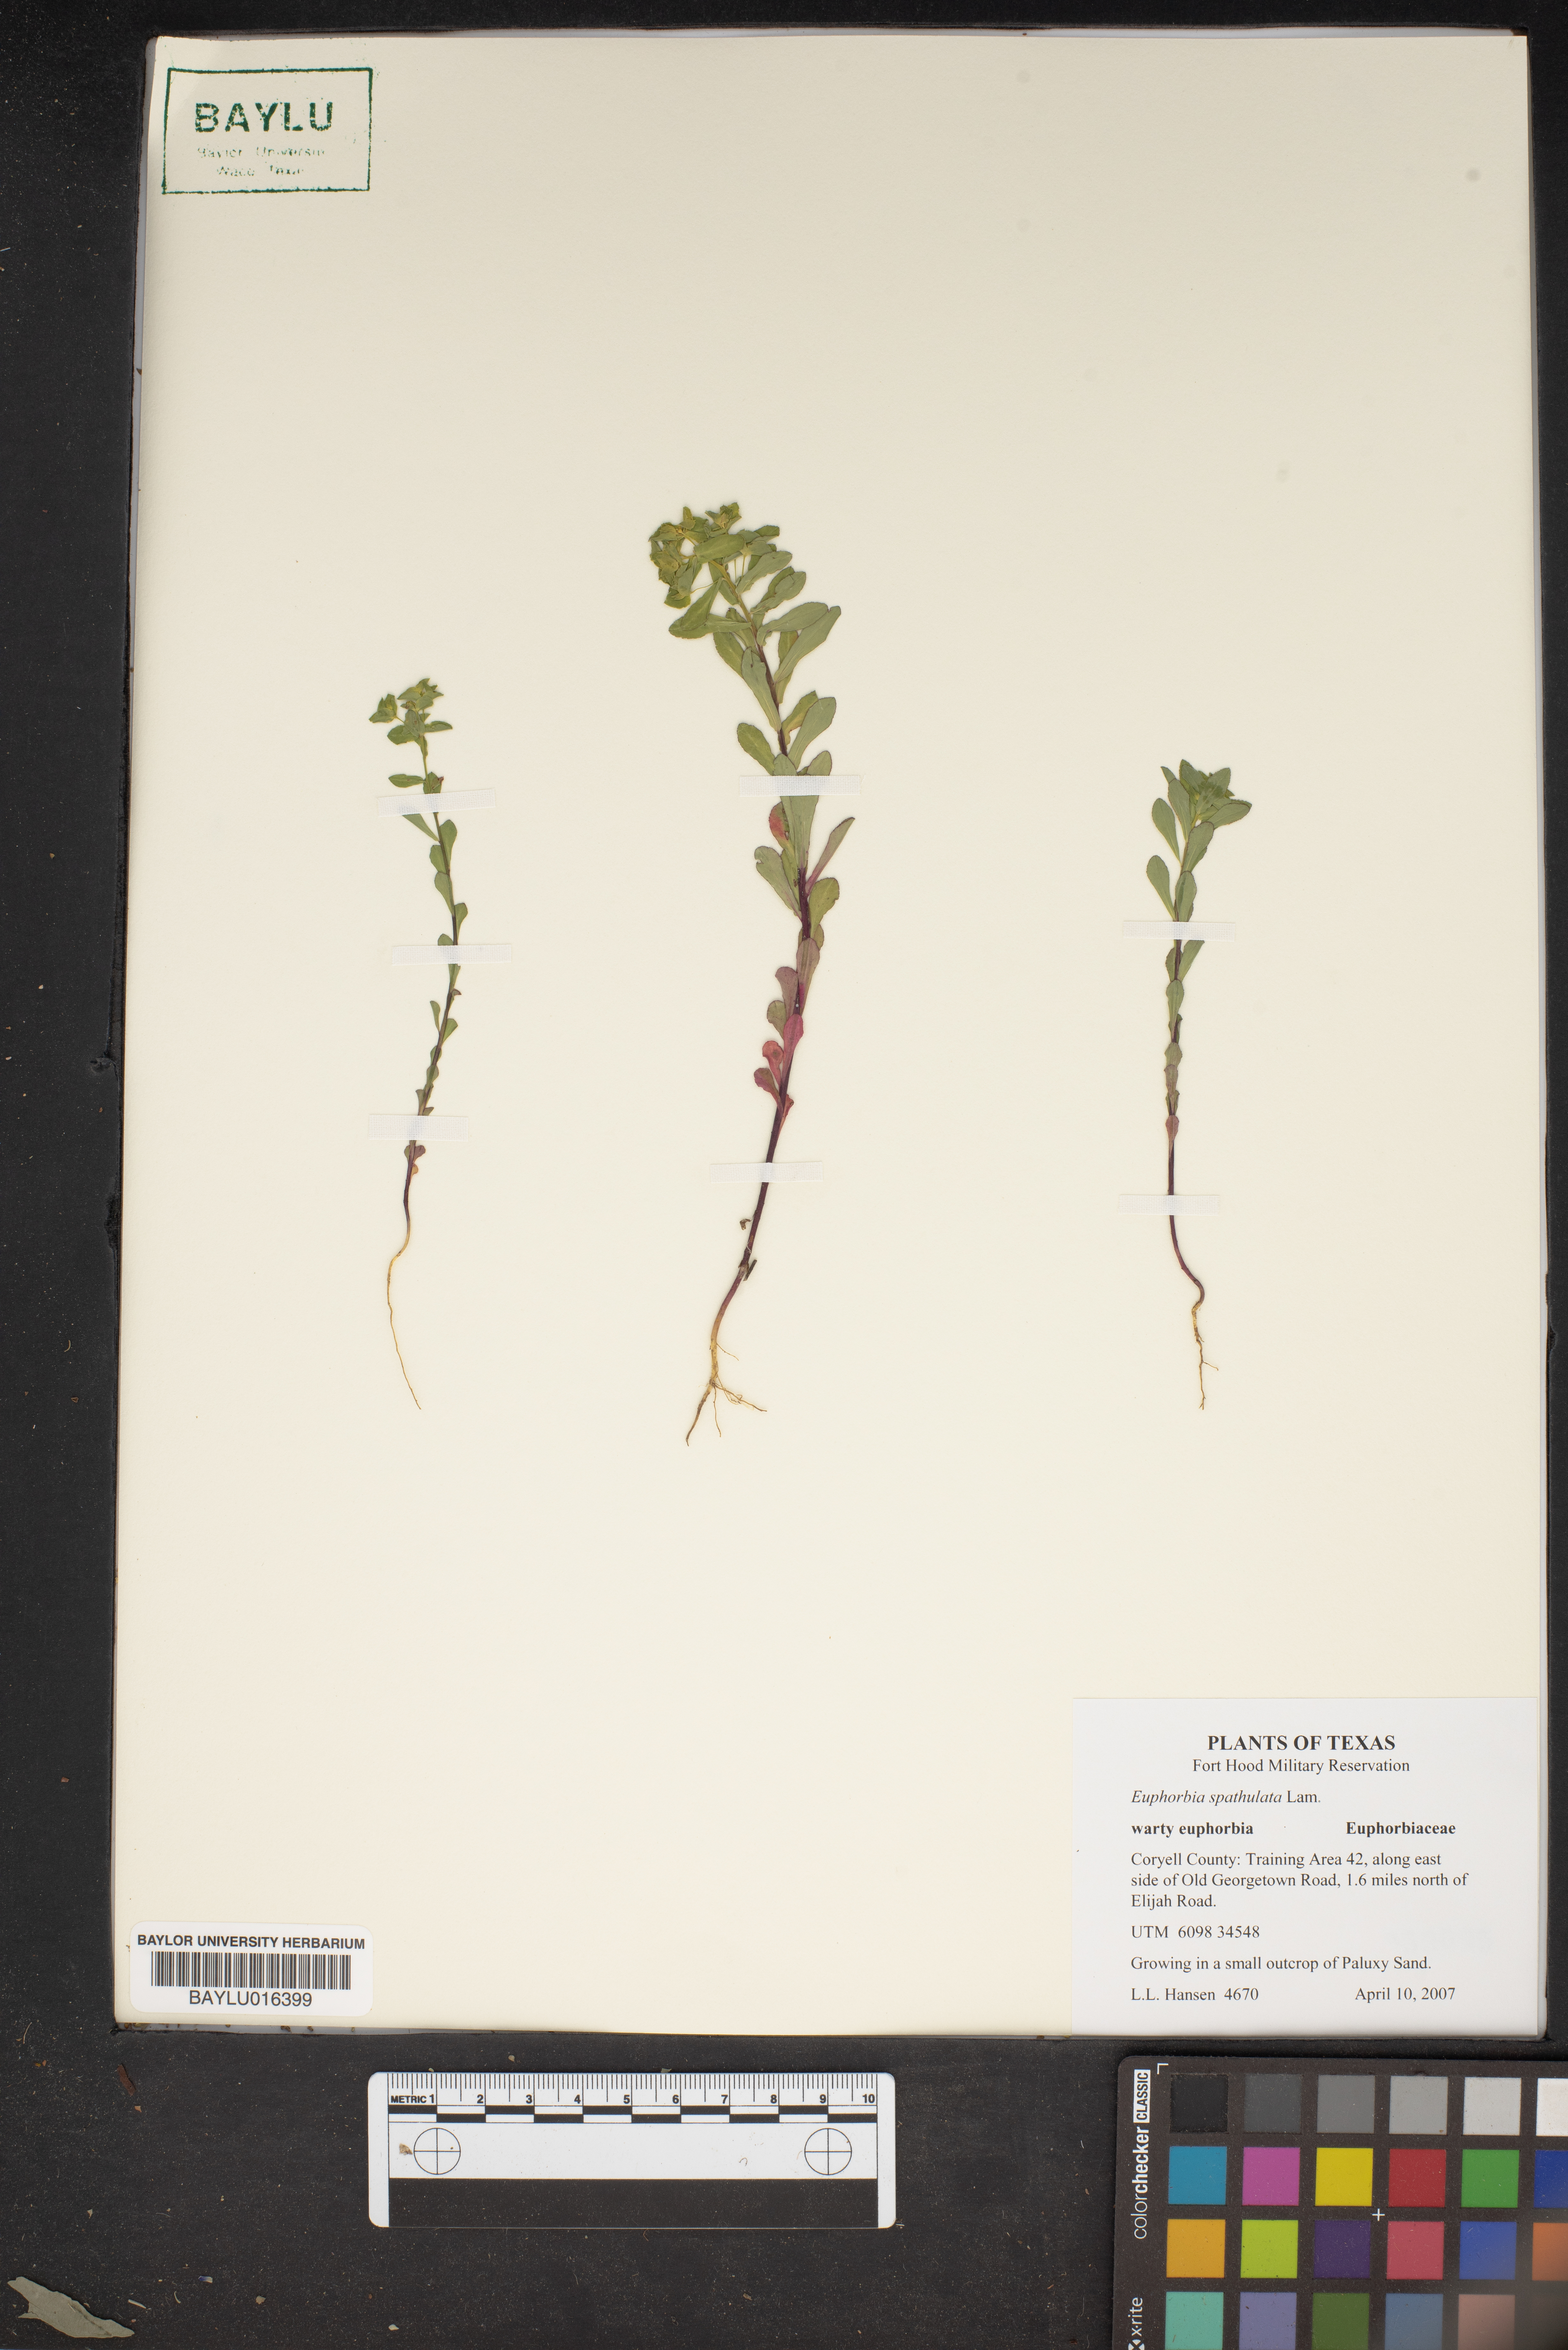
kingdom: Plantae
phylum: Tracheophyta
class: Magnoliopsida
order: Malpighiales
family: Euphorbiaceae
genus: Euphorbia
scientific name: Euphorbia spathulata
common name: Blunt spurge
